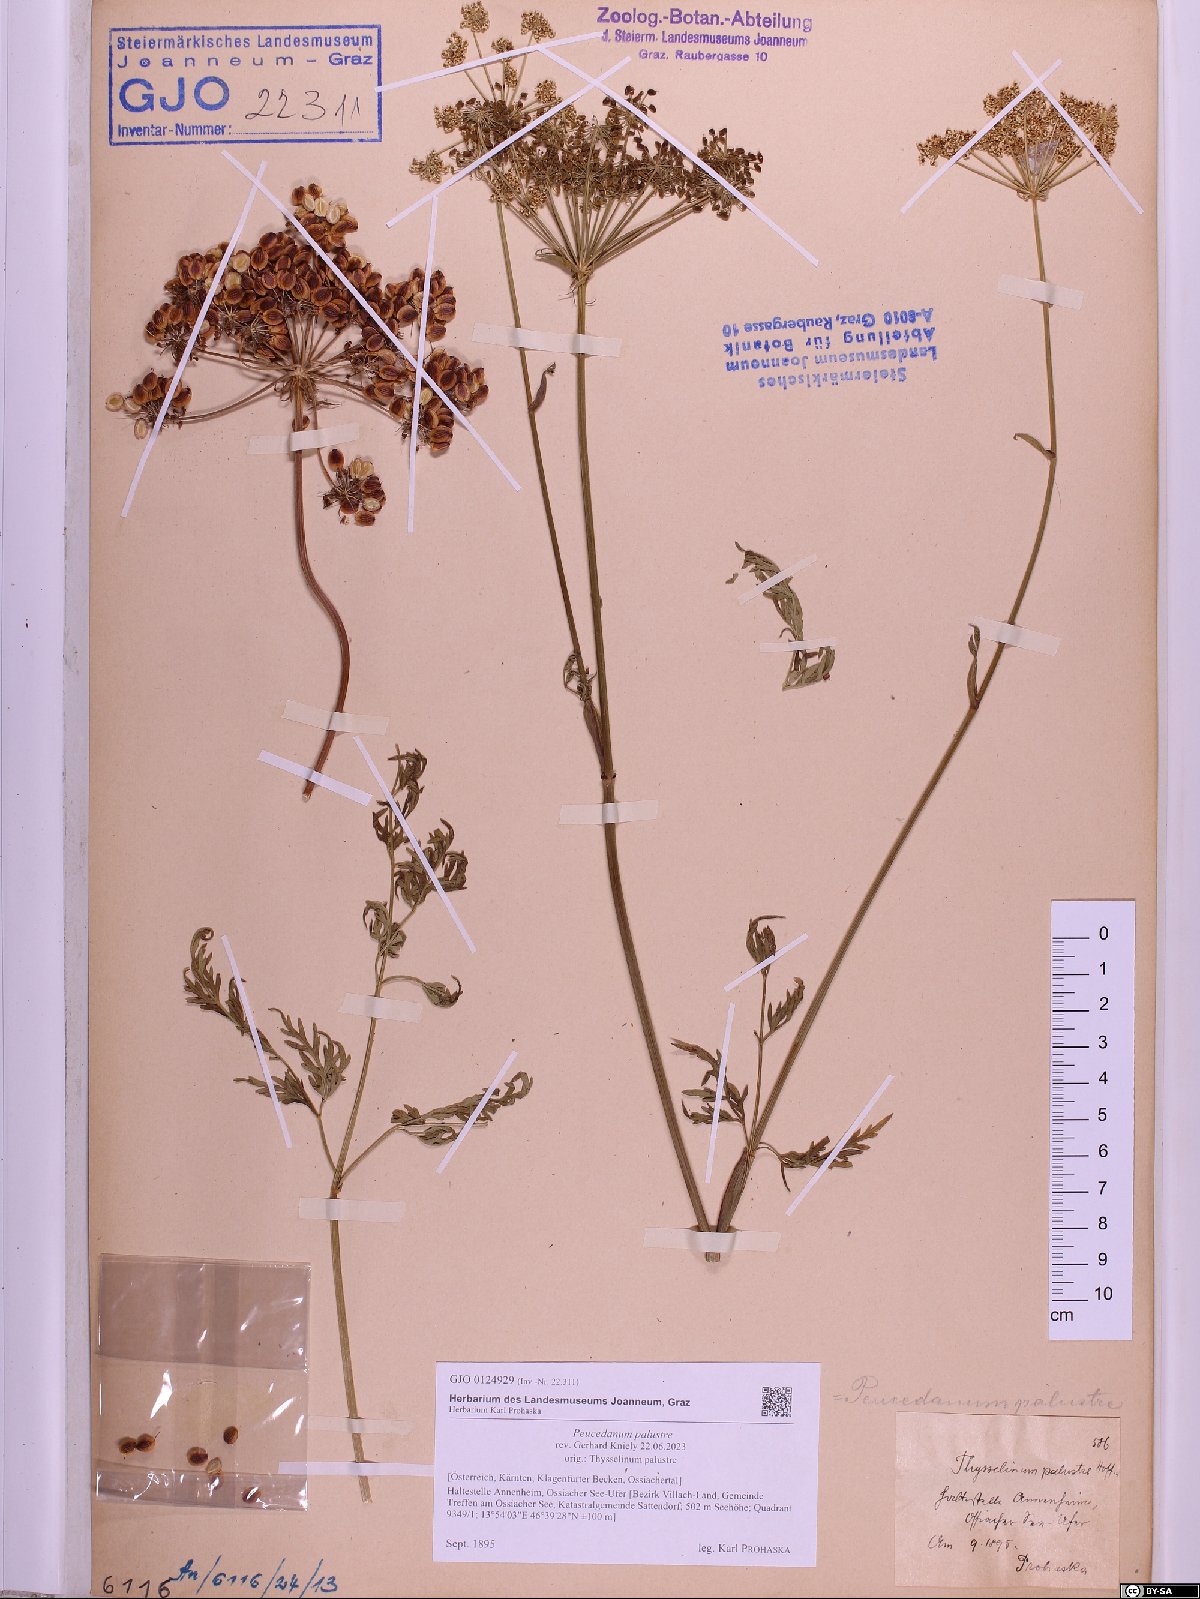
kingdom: Plantae
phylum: Tracheophyta
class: Magnoliopsida
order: Apiales
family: Apiaceae
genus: Thysselinum
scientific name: Thysselinum palustre
